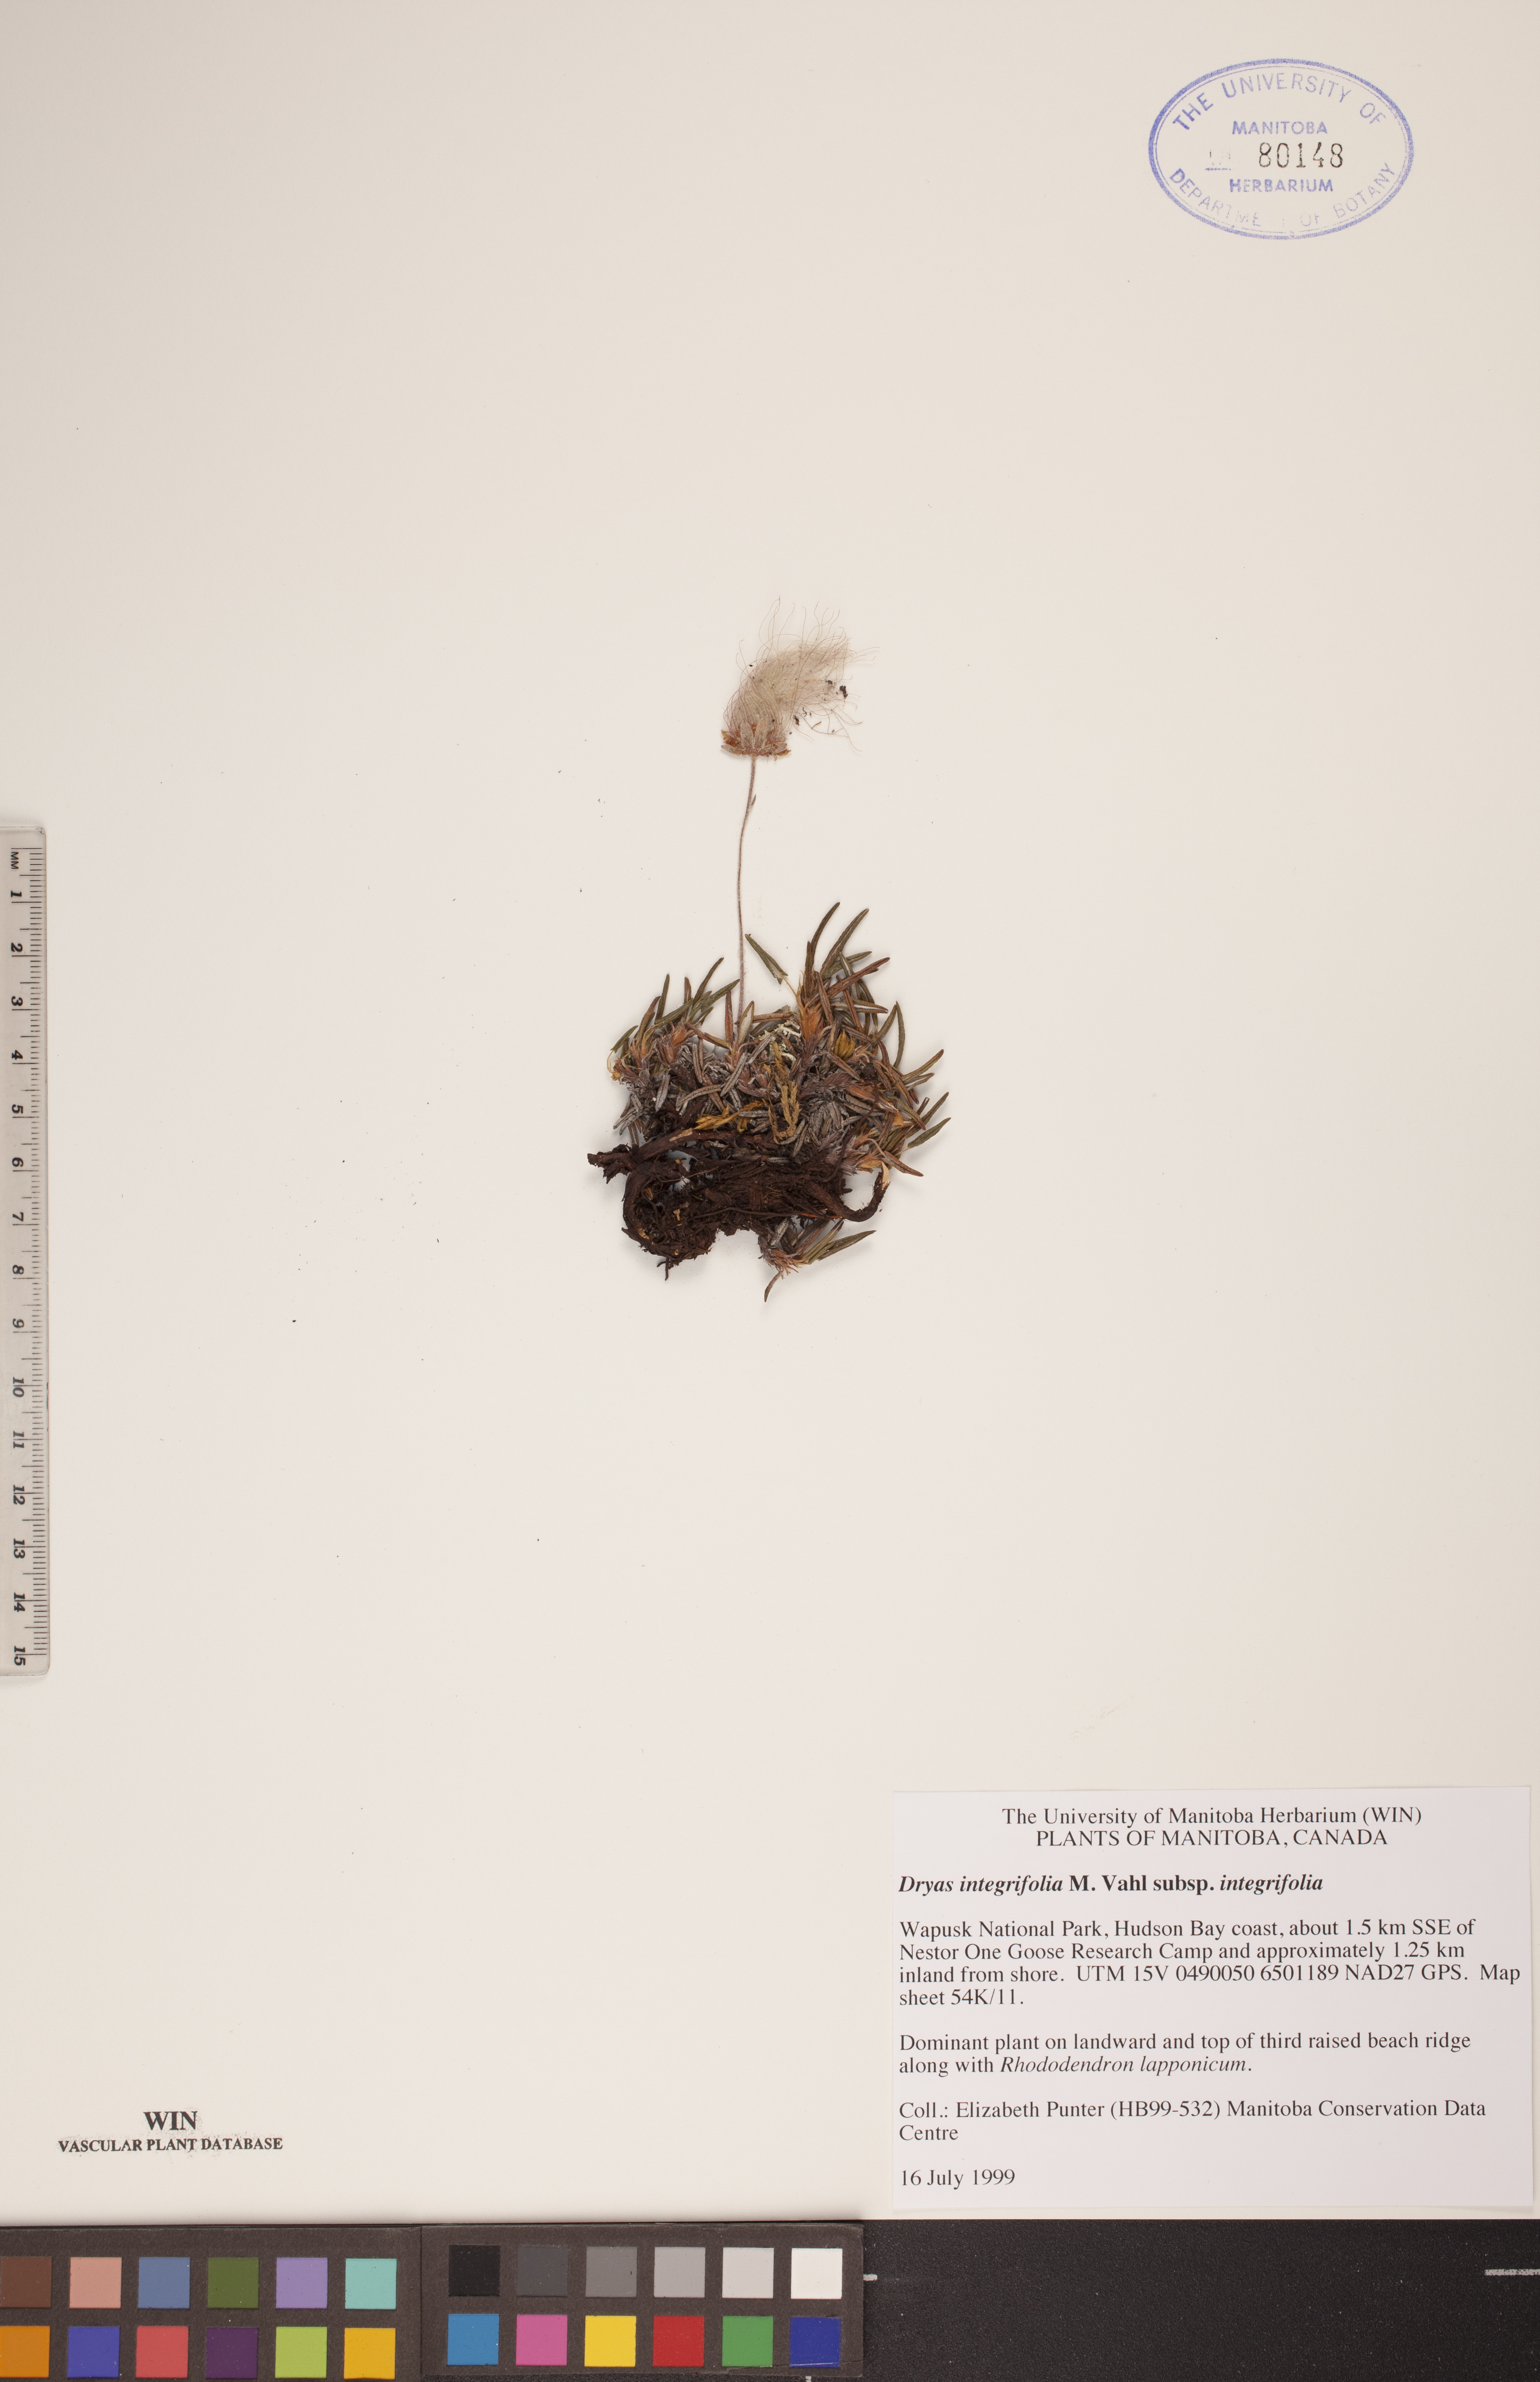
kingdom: Plantae
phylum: Tracheophyta
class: Magnoliopsida
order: Rosales
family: Rosaceae
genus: Dryas
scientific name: Dryas integrifolia
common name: Entire-leaved mountain avens
